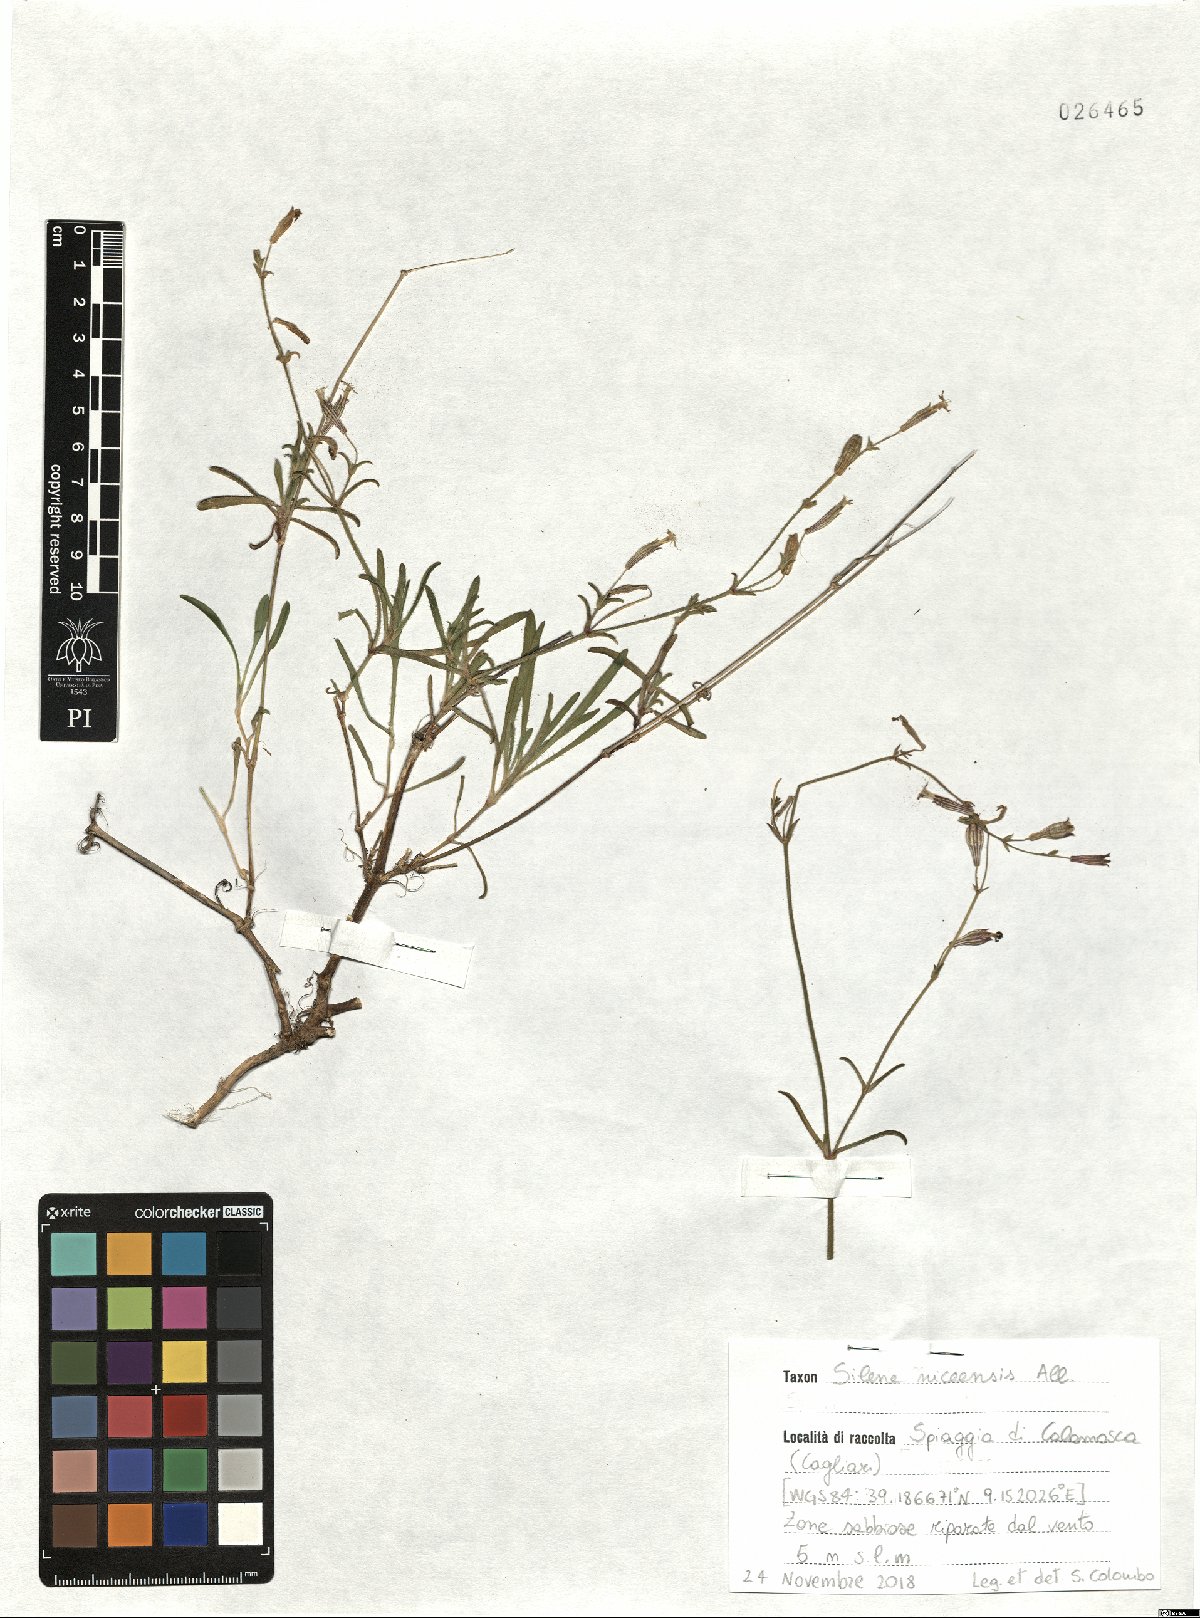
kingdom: Plantae
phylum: Tracheophyta
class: Magnoliopsida
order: Caryophyllales
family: Caryophyllaceae
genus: Silene
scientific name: Silene nicaeensis
